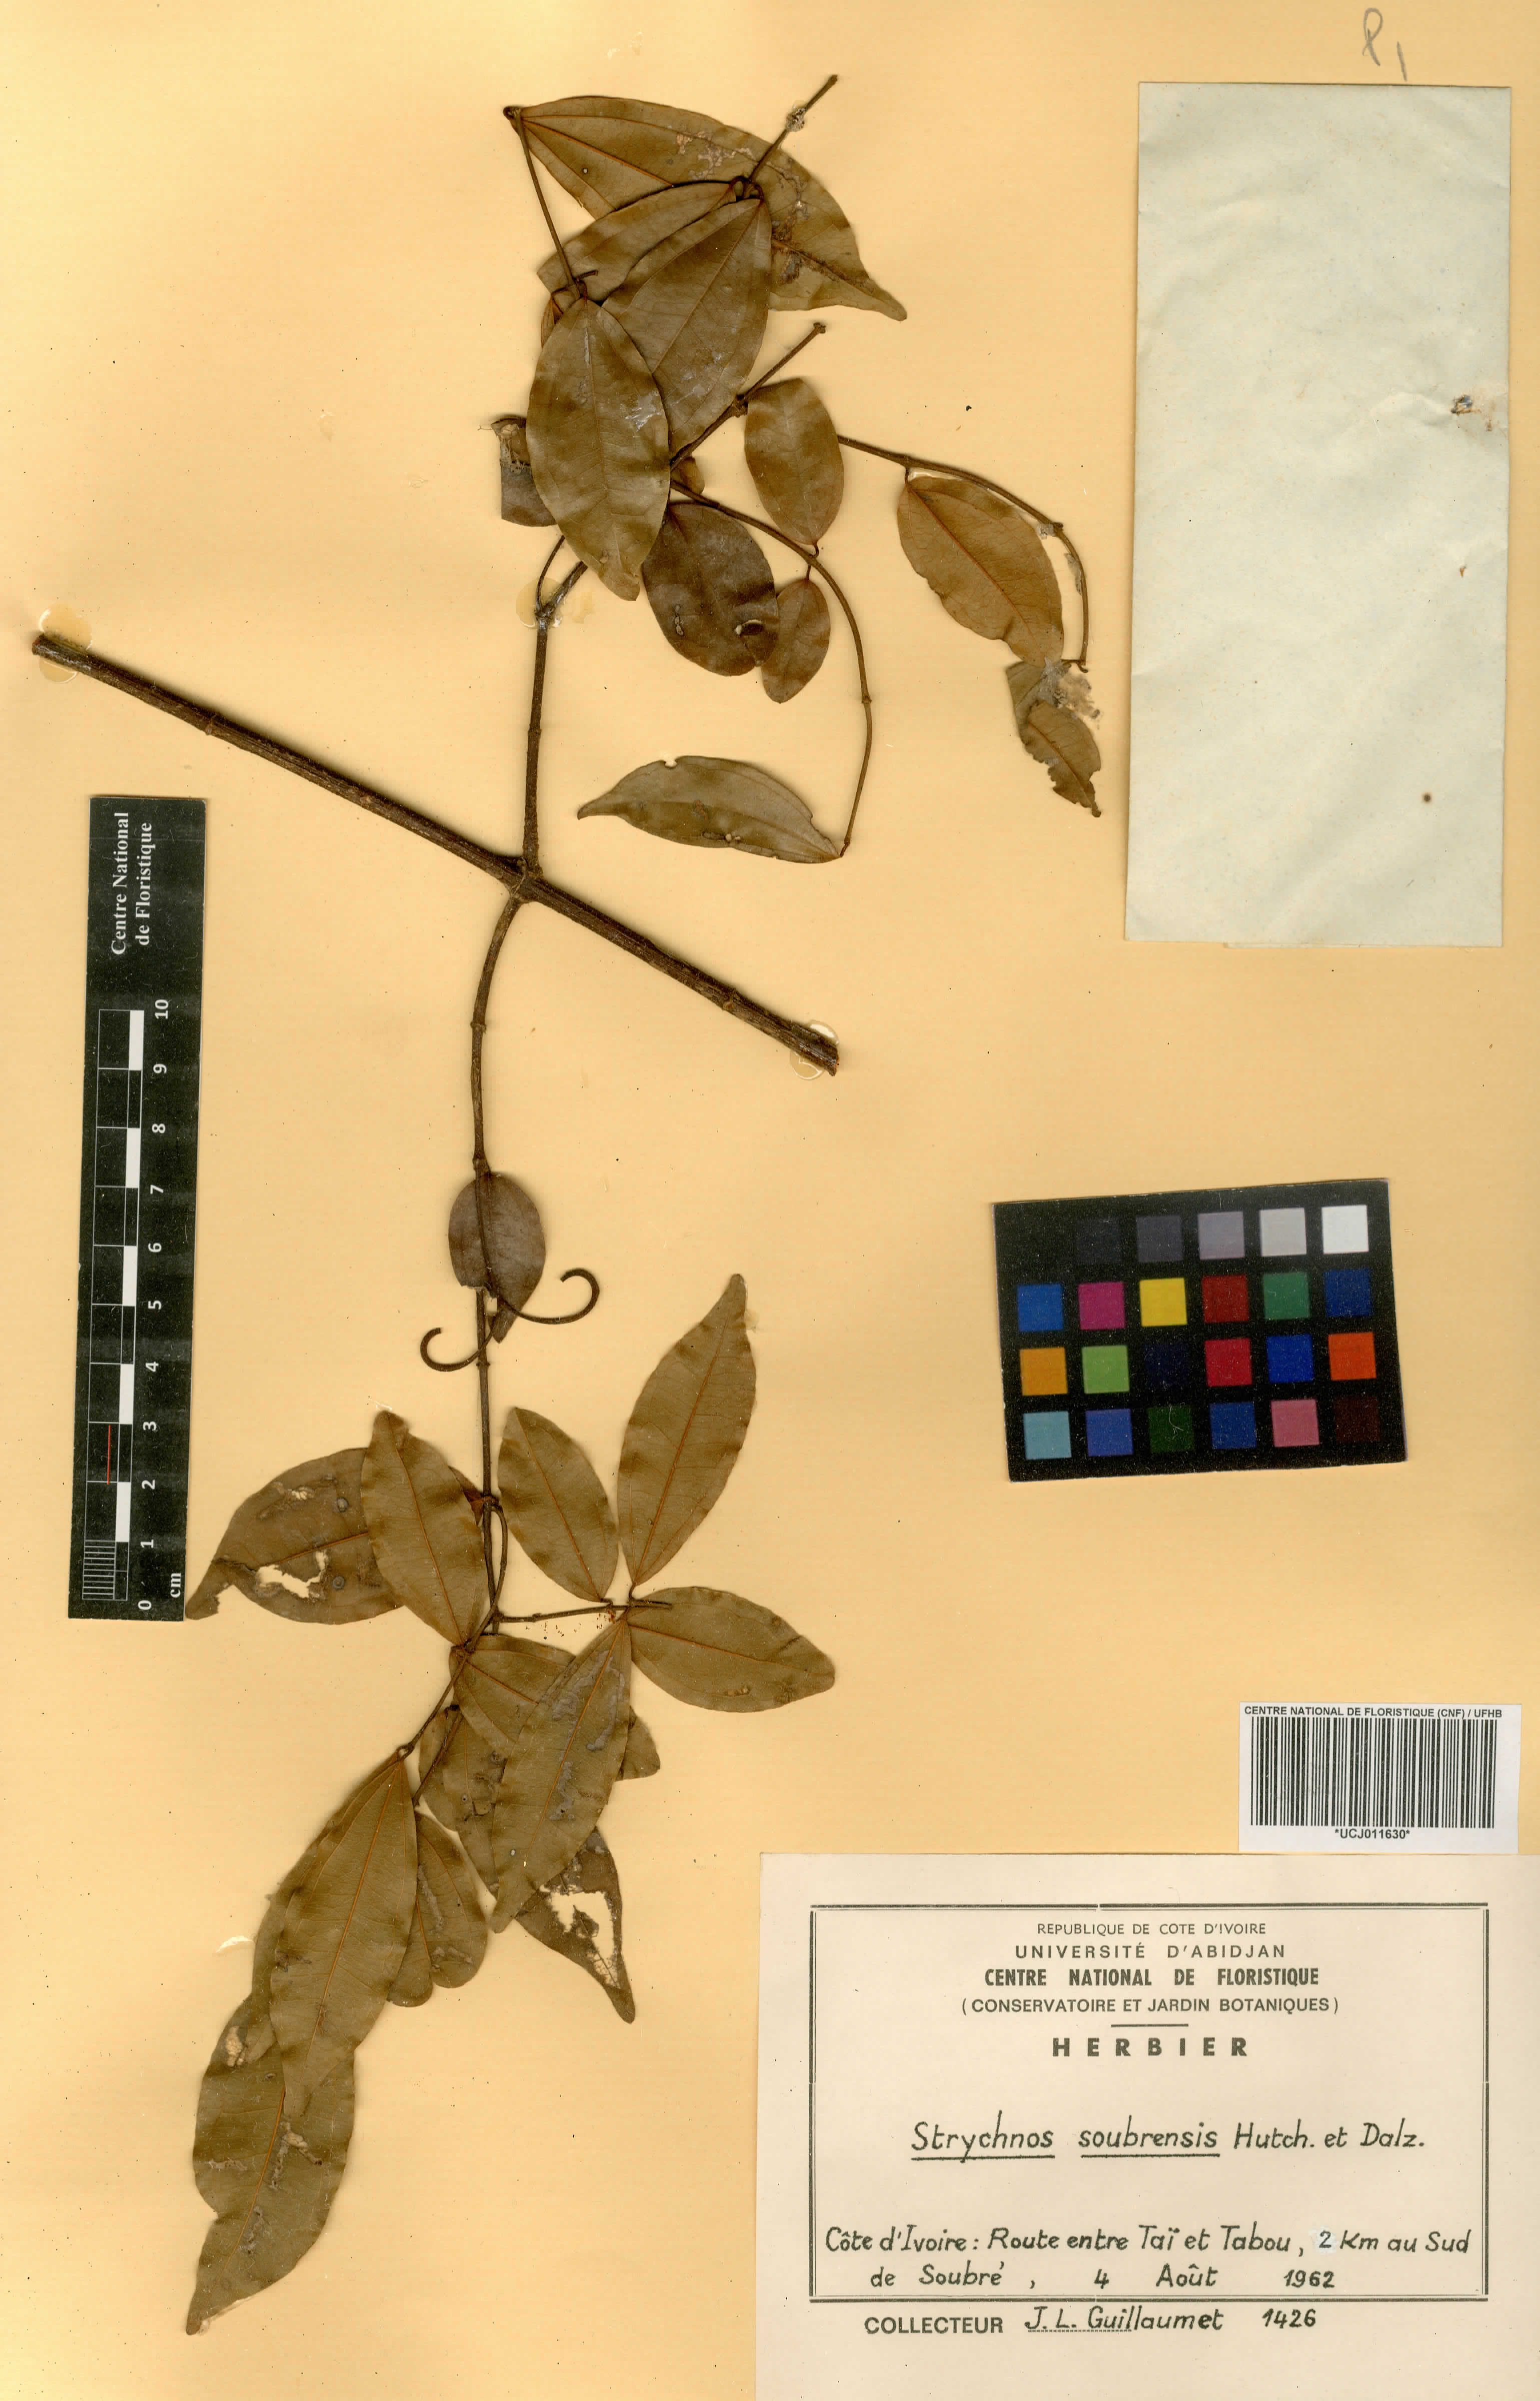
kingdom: Plantae
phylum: Tracheophyta
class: Magnoliopsida
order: Gentianales
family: Loganiaceae
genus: Strychnos
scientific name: Strychnos soubrensis
